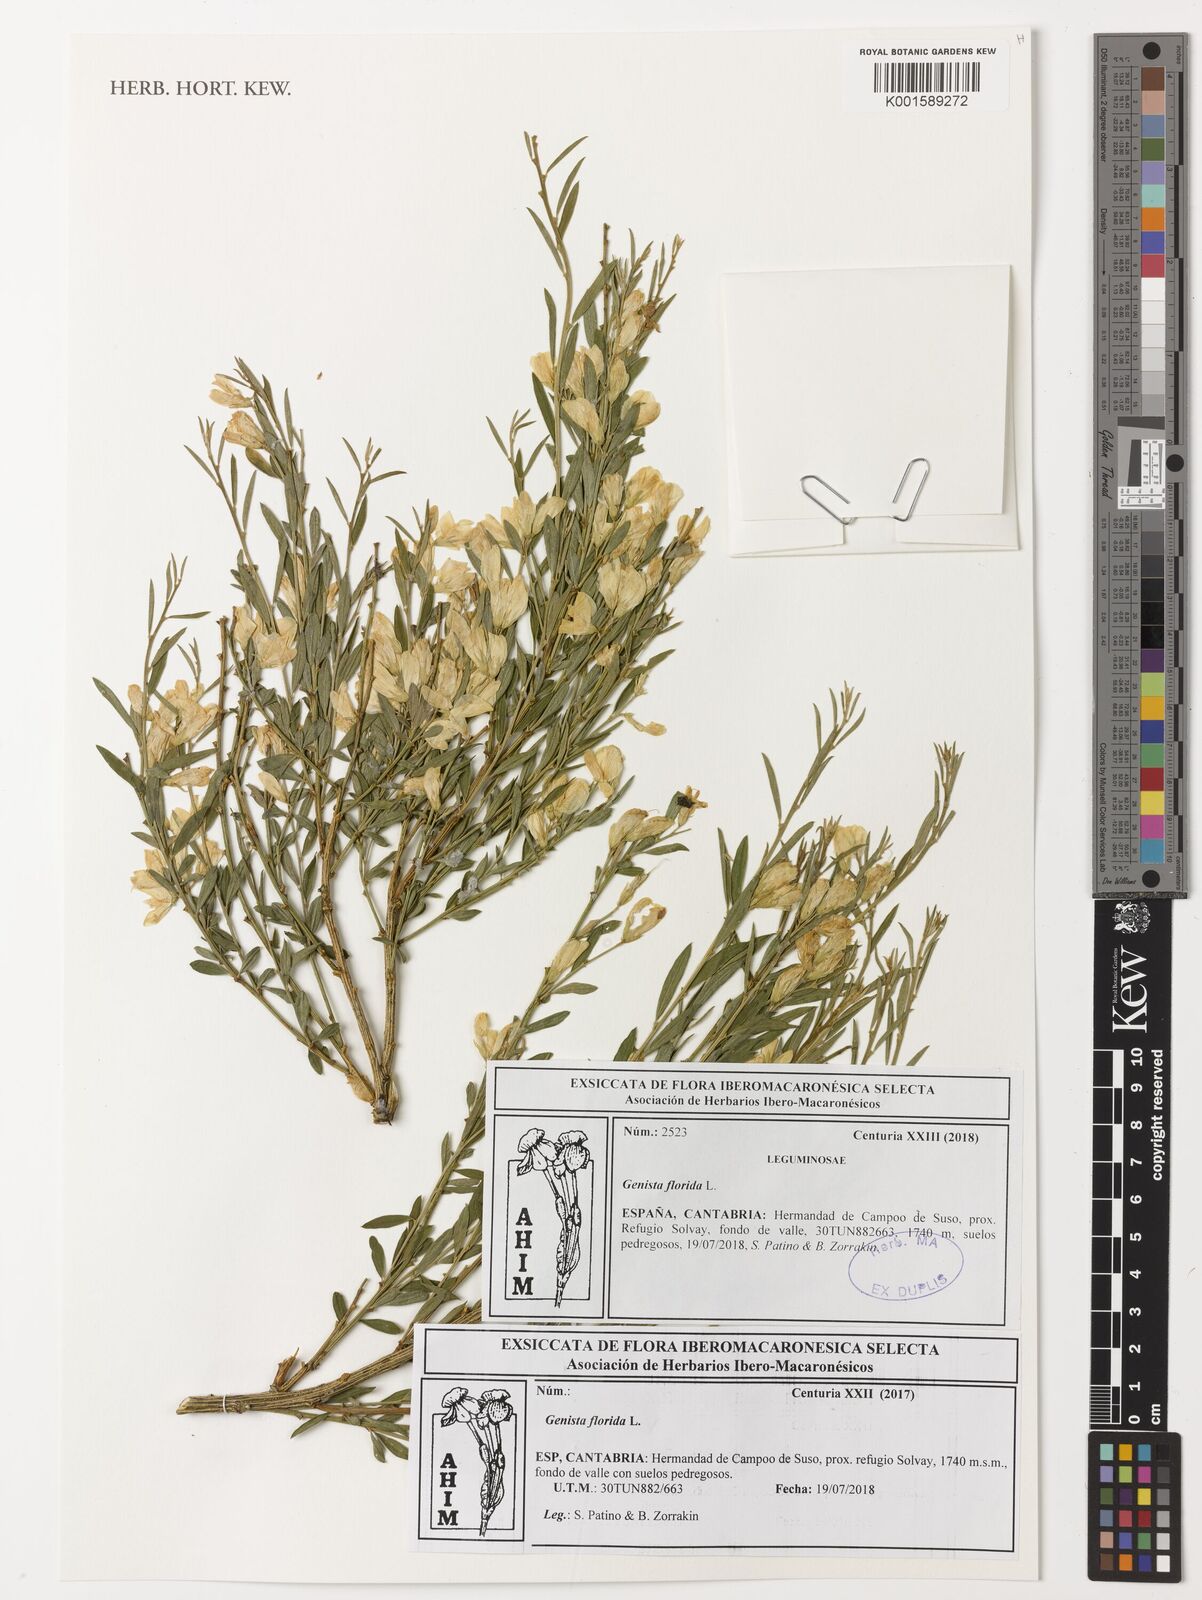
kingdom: Plantae
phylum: Tracheophyta
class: Magnoliopsida
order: Fabales
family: Fabaceae
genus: Genista
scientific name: Genista florida
